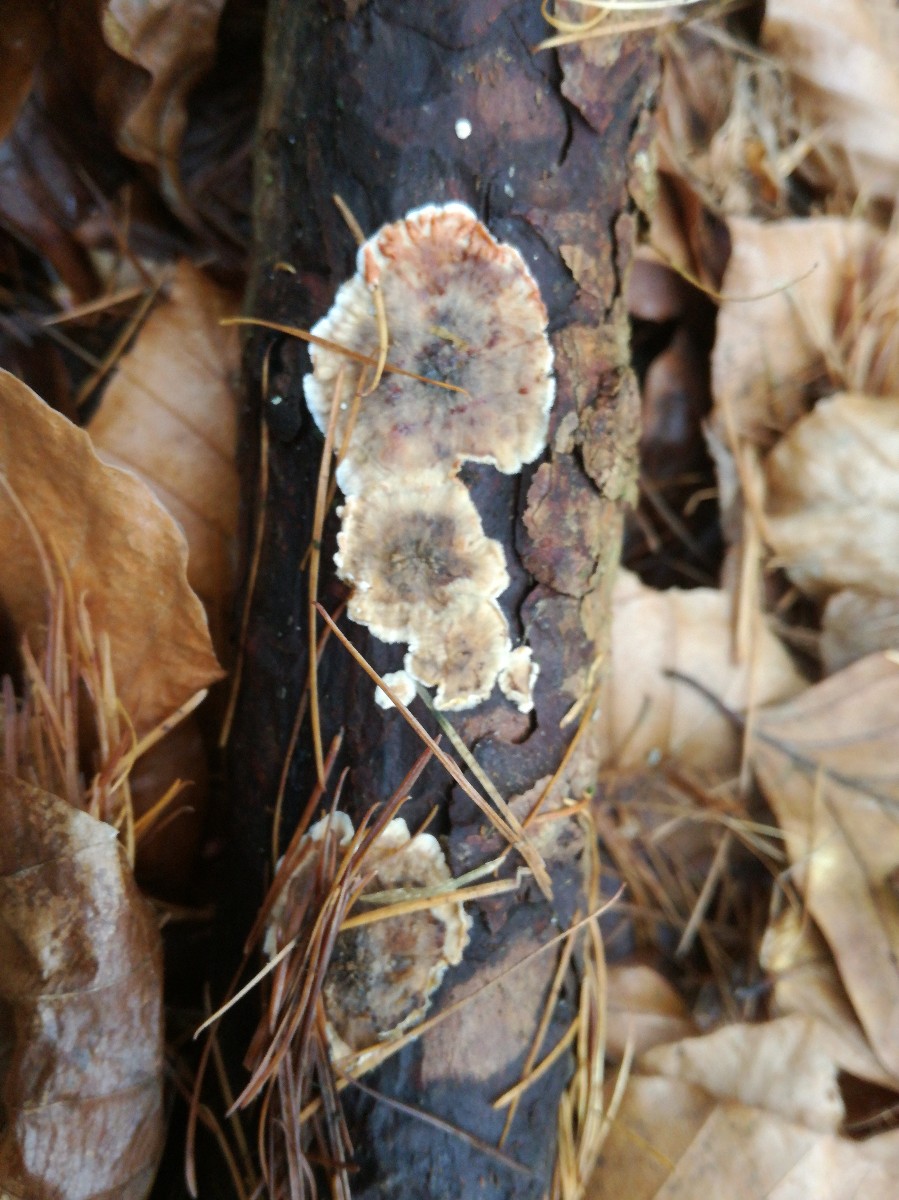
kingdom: Fungi
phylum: Basidiomycota
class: Agaricomycetes
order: Russulales
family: Stereaceae
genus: Stereum
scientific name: Stereum sanguinolentum
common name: blødende lædersvamp
